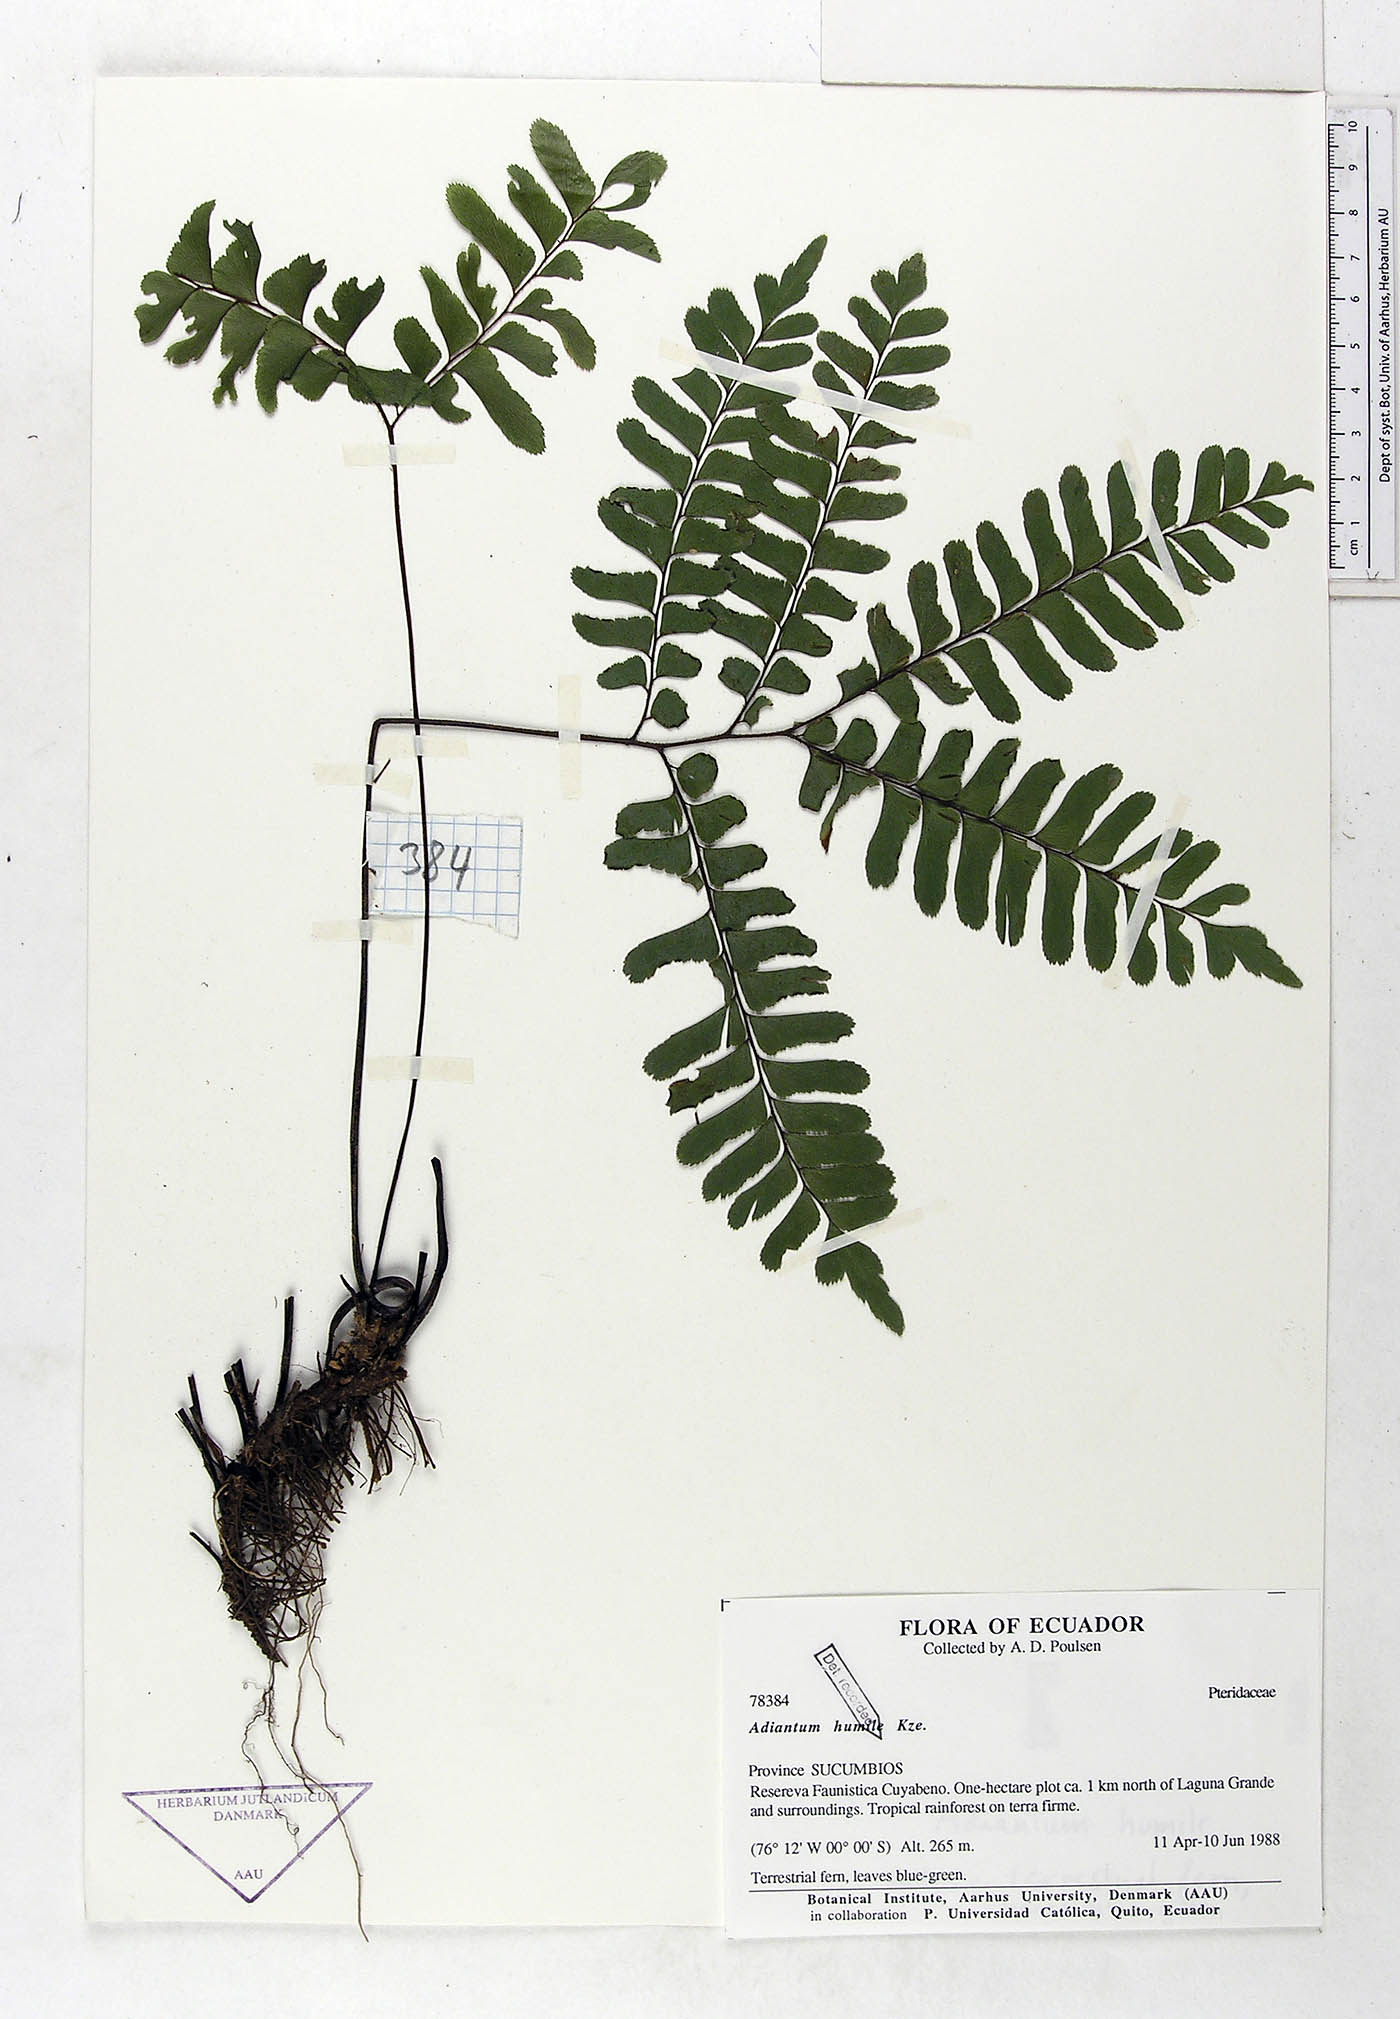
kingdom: Plantae
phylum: Tracheophyta
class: Polypodiopsida
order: Polypodiales
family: Pteridaceae
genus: Adiantum
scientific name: Adiantum humile
